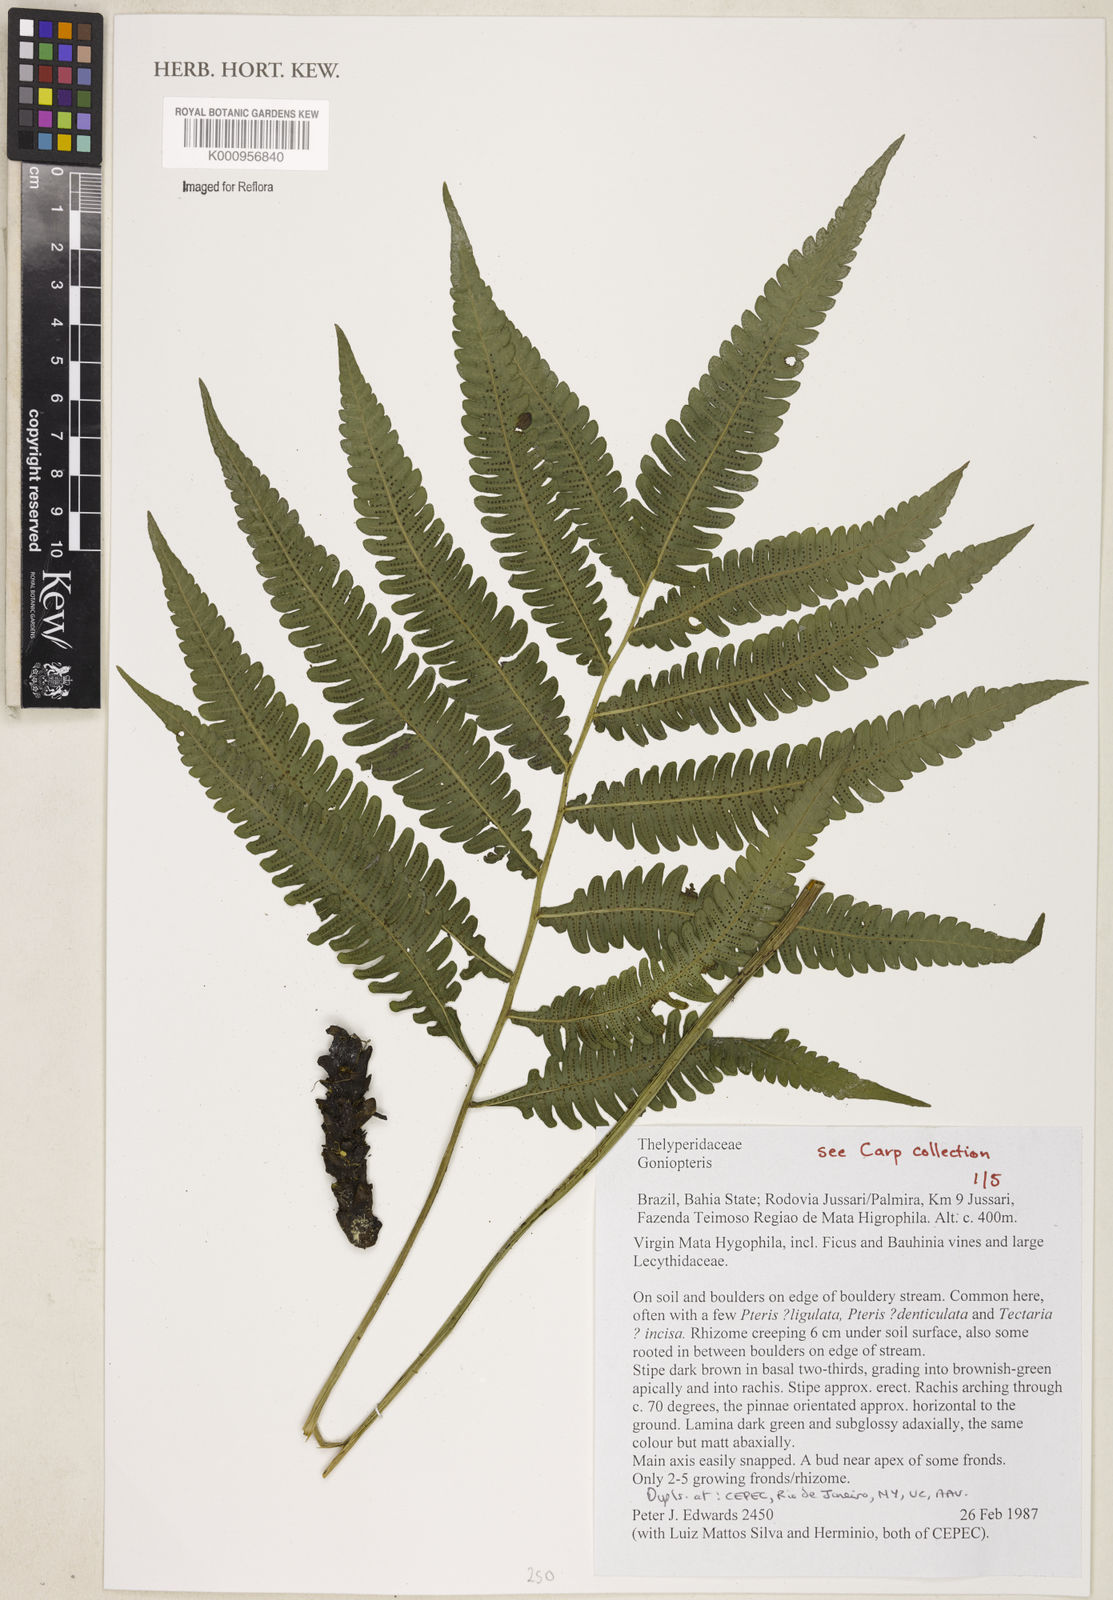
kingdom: Plantae
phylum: Tracheophyta
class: Polypodiopsida
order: Polypodiales
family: Thelypteridaceae
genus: Goniopteris
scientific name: Goniopteris smithii
